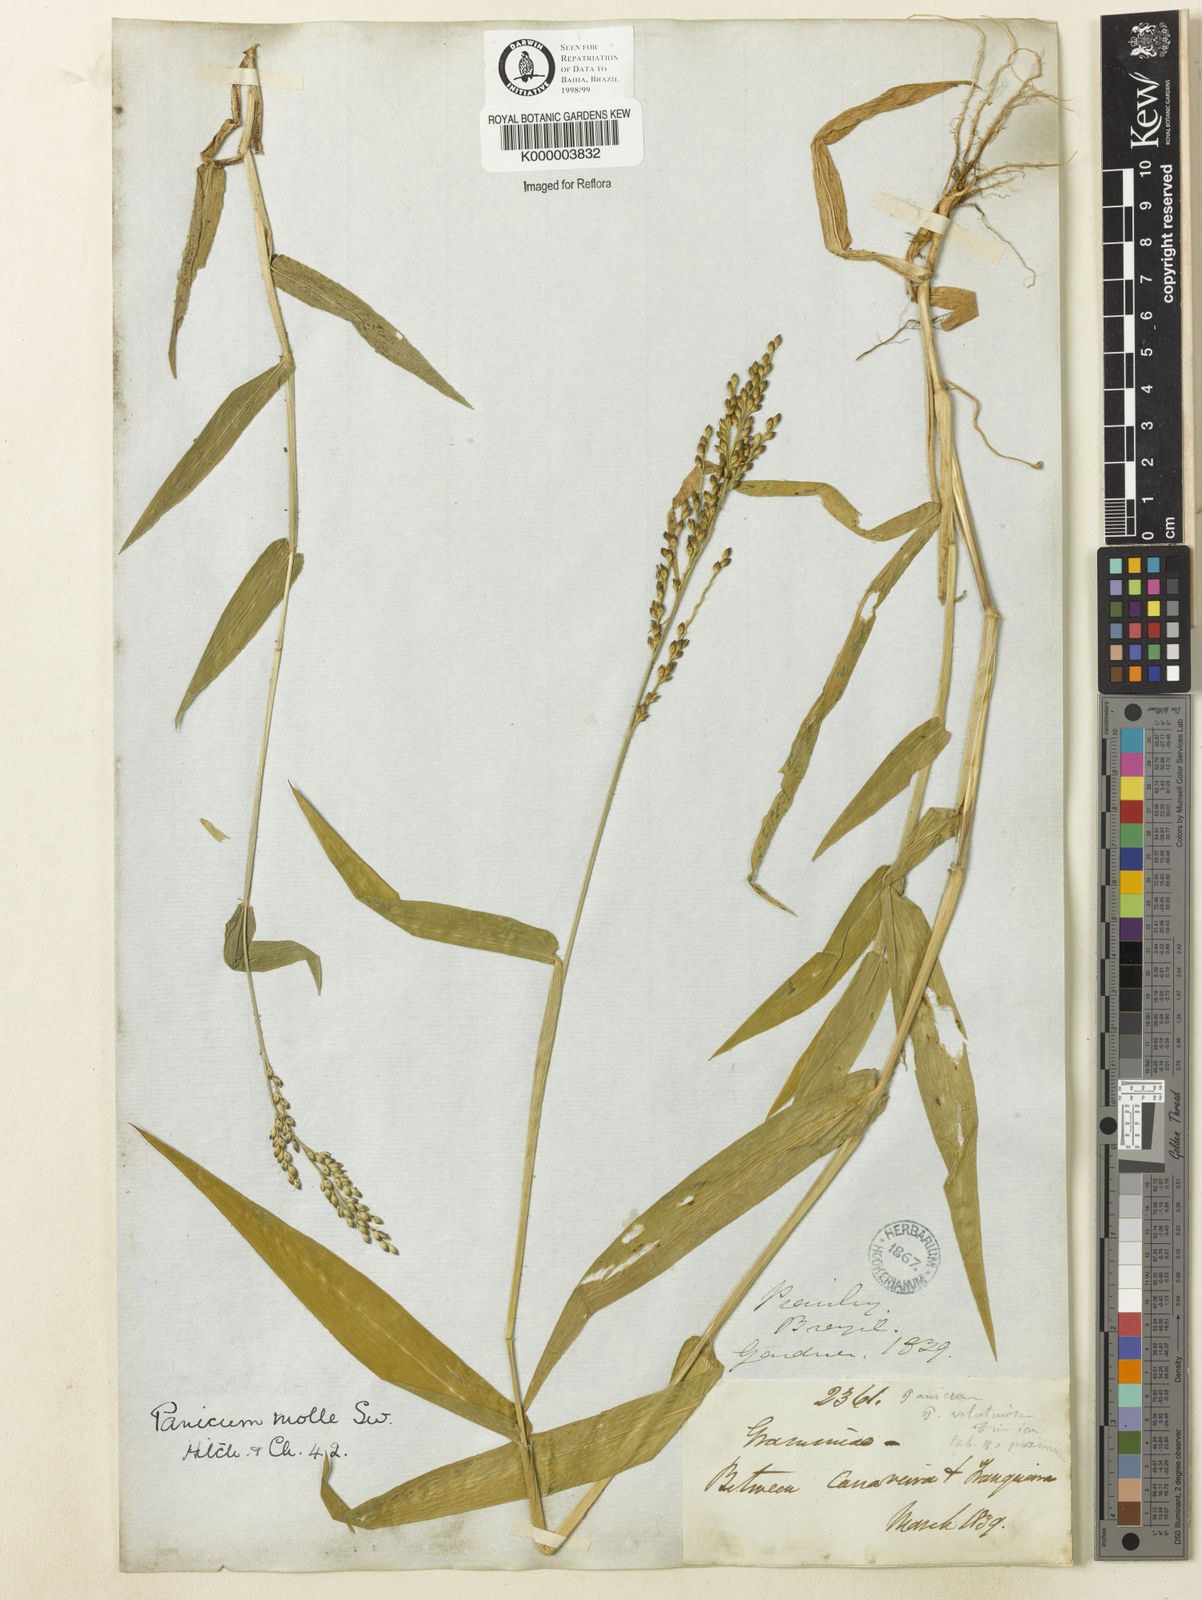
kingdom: Plantae
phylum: Tracheophyta
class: Liliopsida
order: Poales
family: Poaceae
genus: Urochloa
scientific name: Urochloa mollis
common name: Grass
